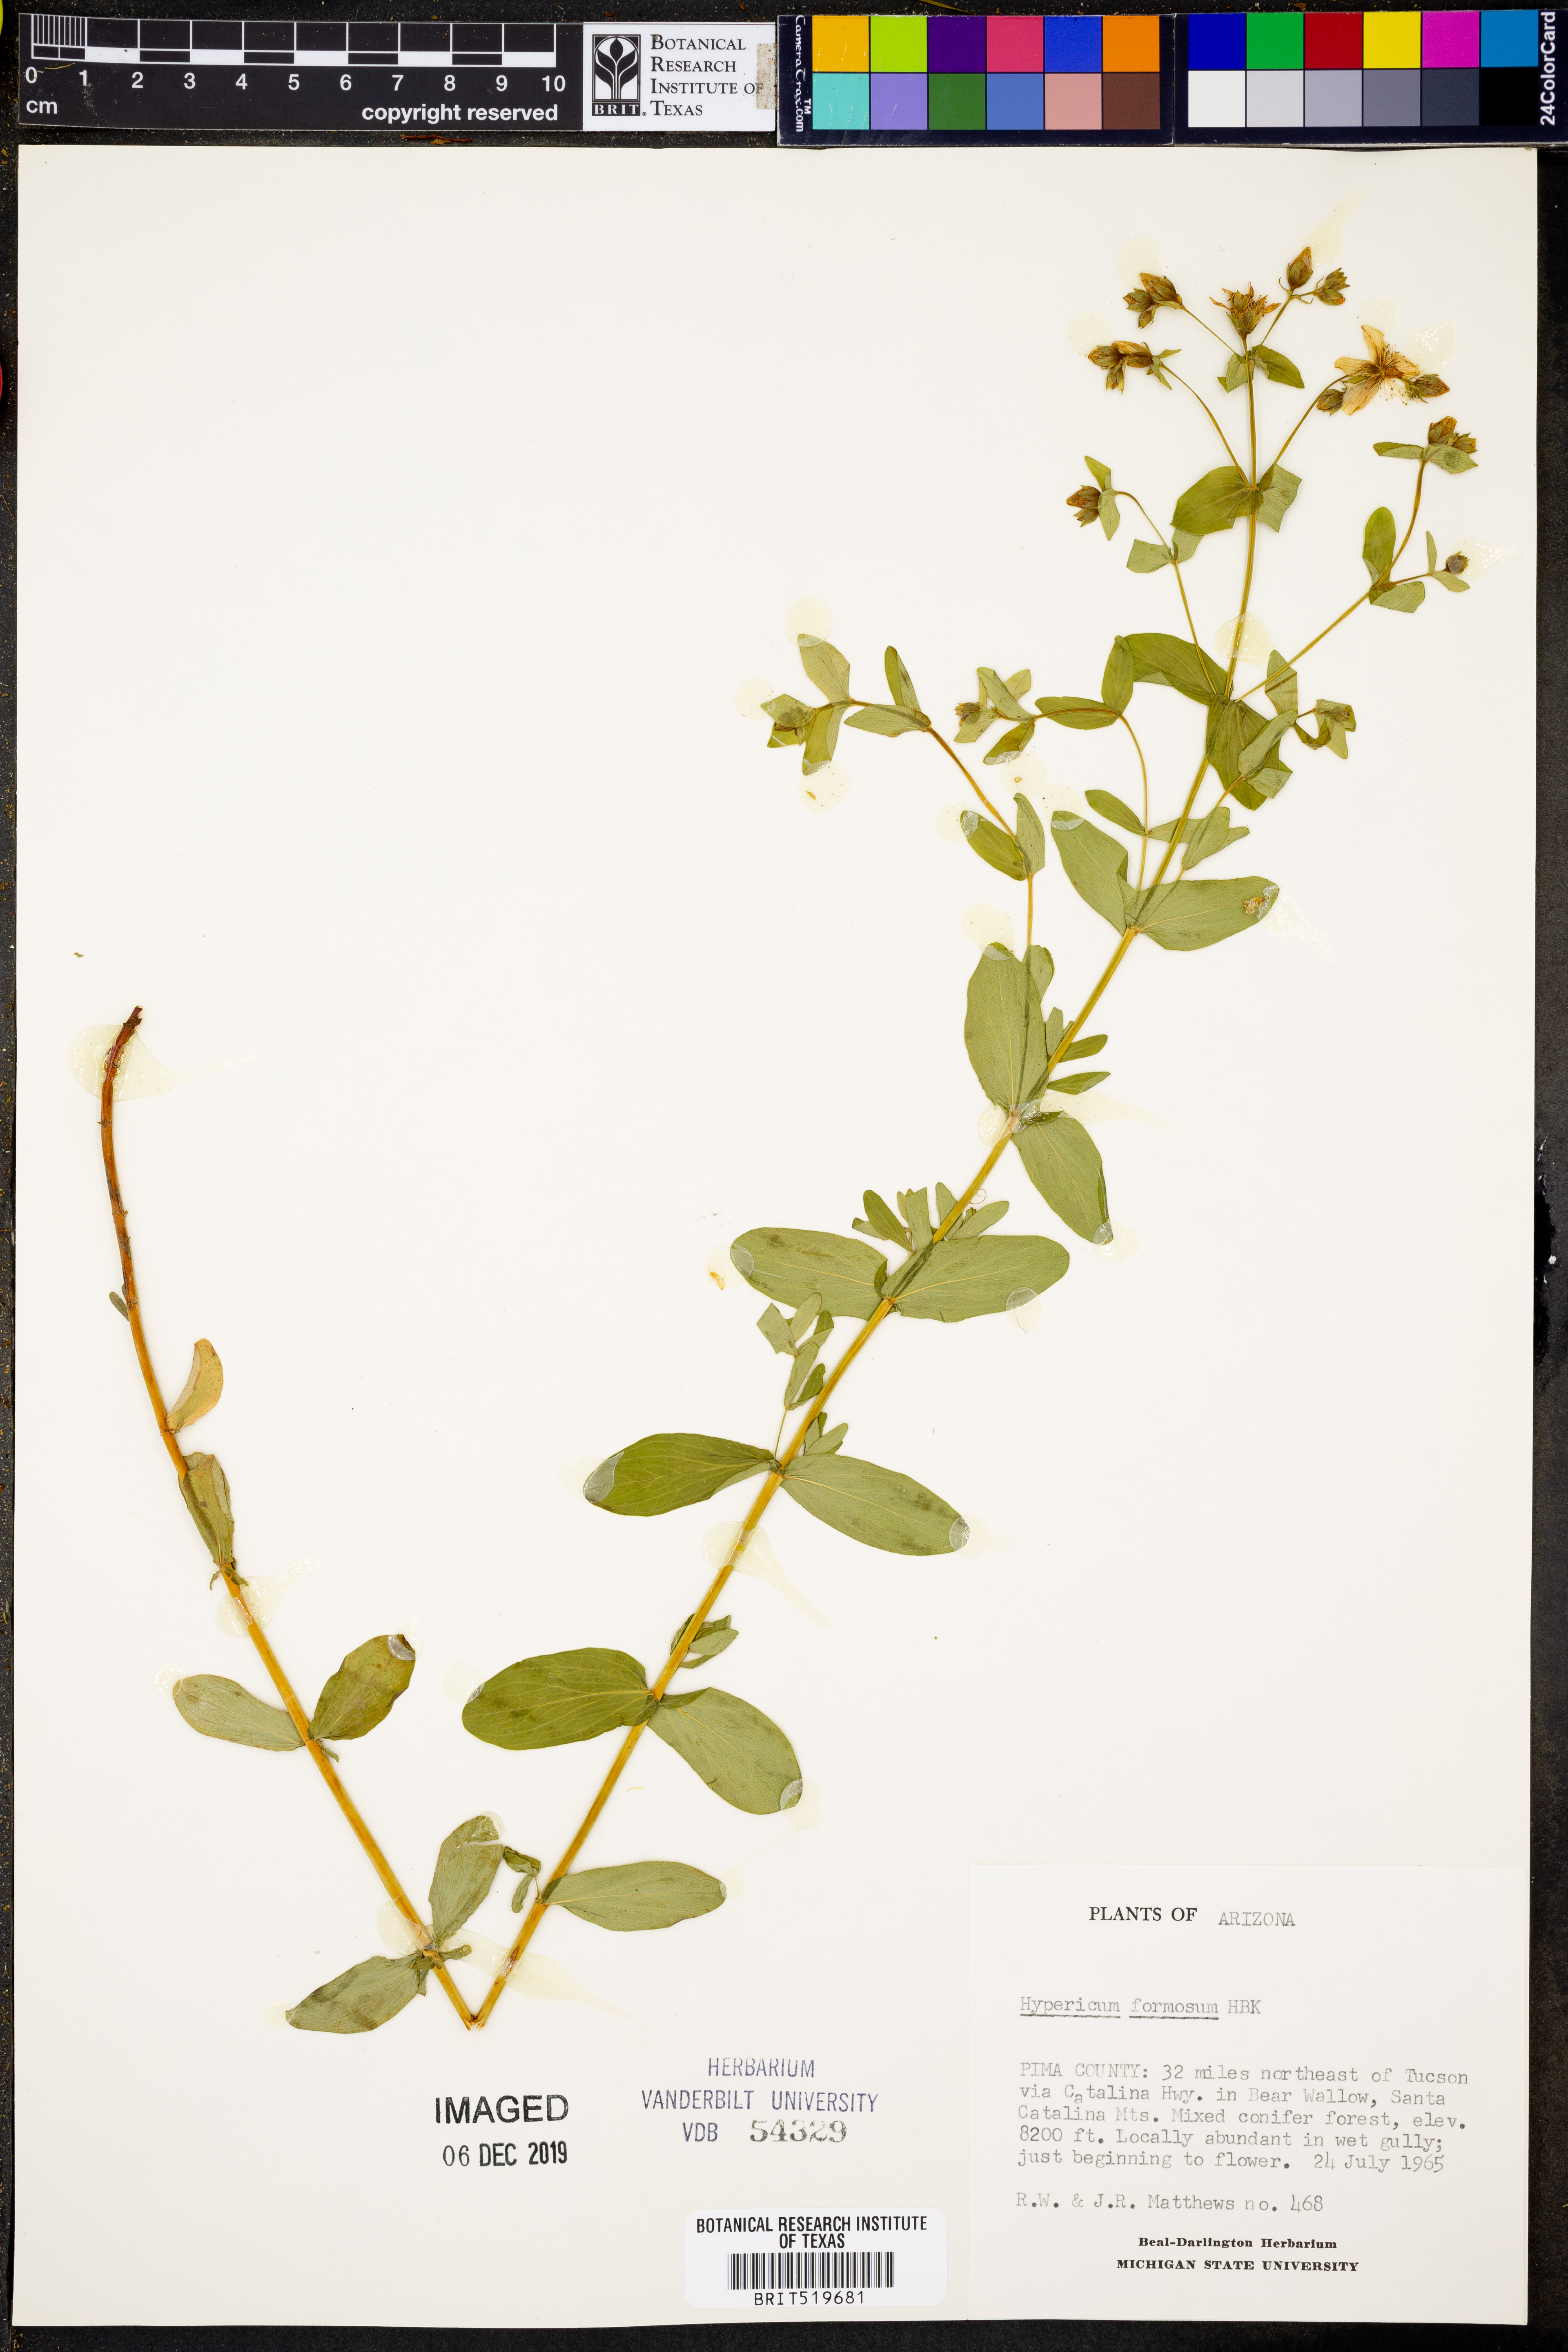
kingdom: Plantae
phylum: Tracheophyta
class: Magnoliopsida
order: Malpighiales
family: Hypericaceae
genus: Hypericum
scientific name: Hypericum formosum
